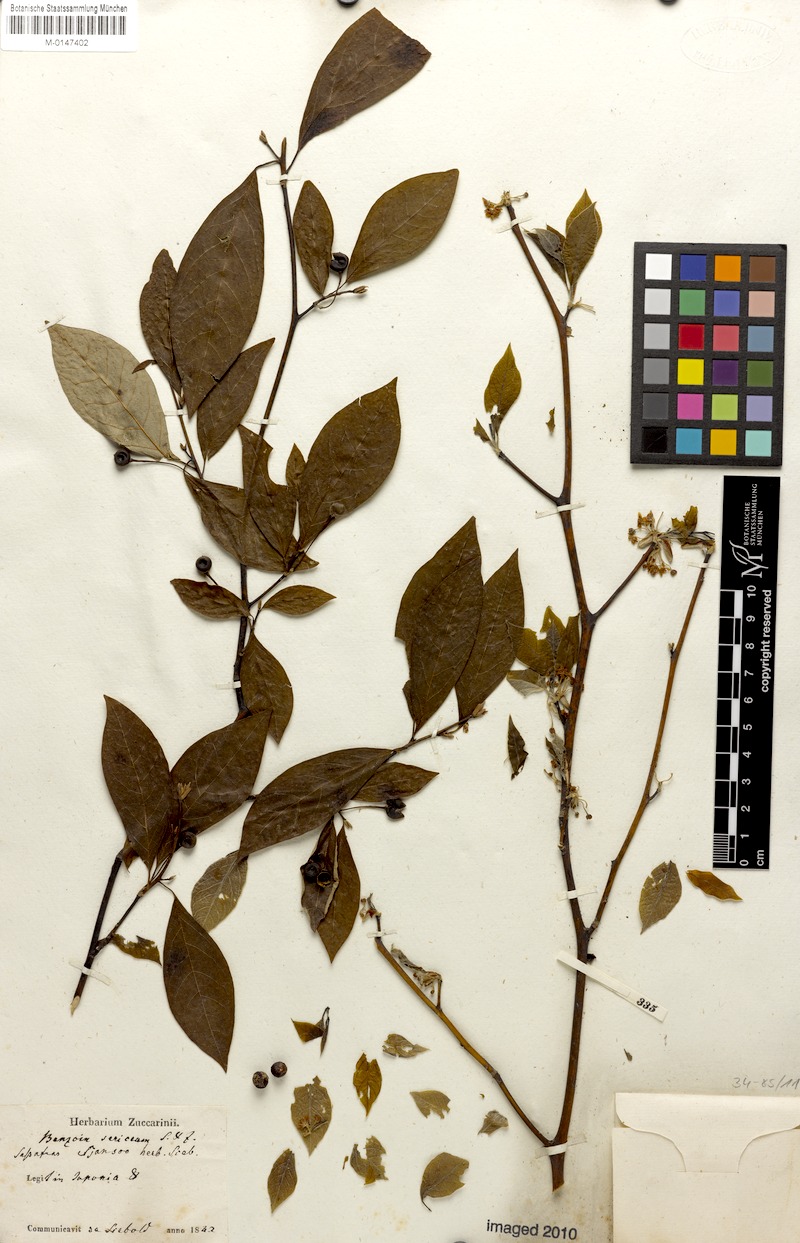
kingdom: Plantae
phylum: Tracheophyta
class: Magnoliopsida
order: Laurales
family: Lauraceae
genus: Lindera
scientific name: Lindera sericea
